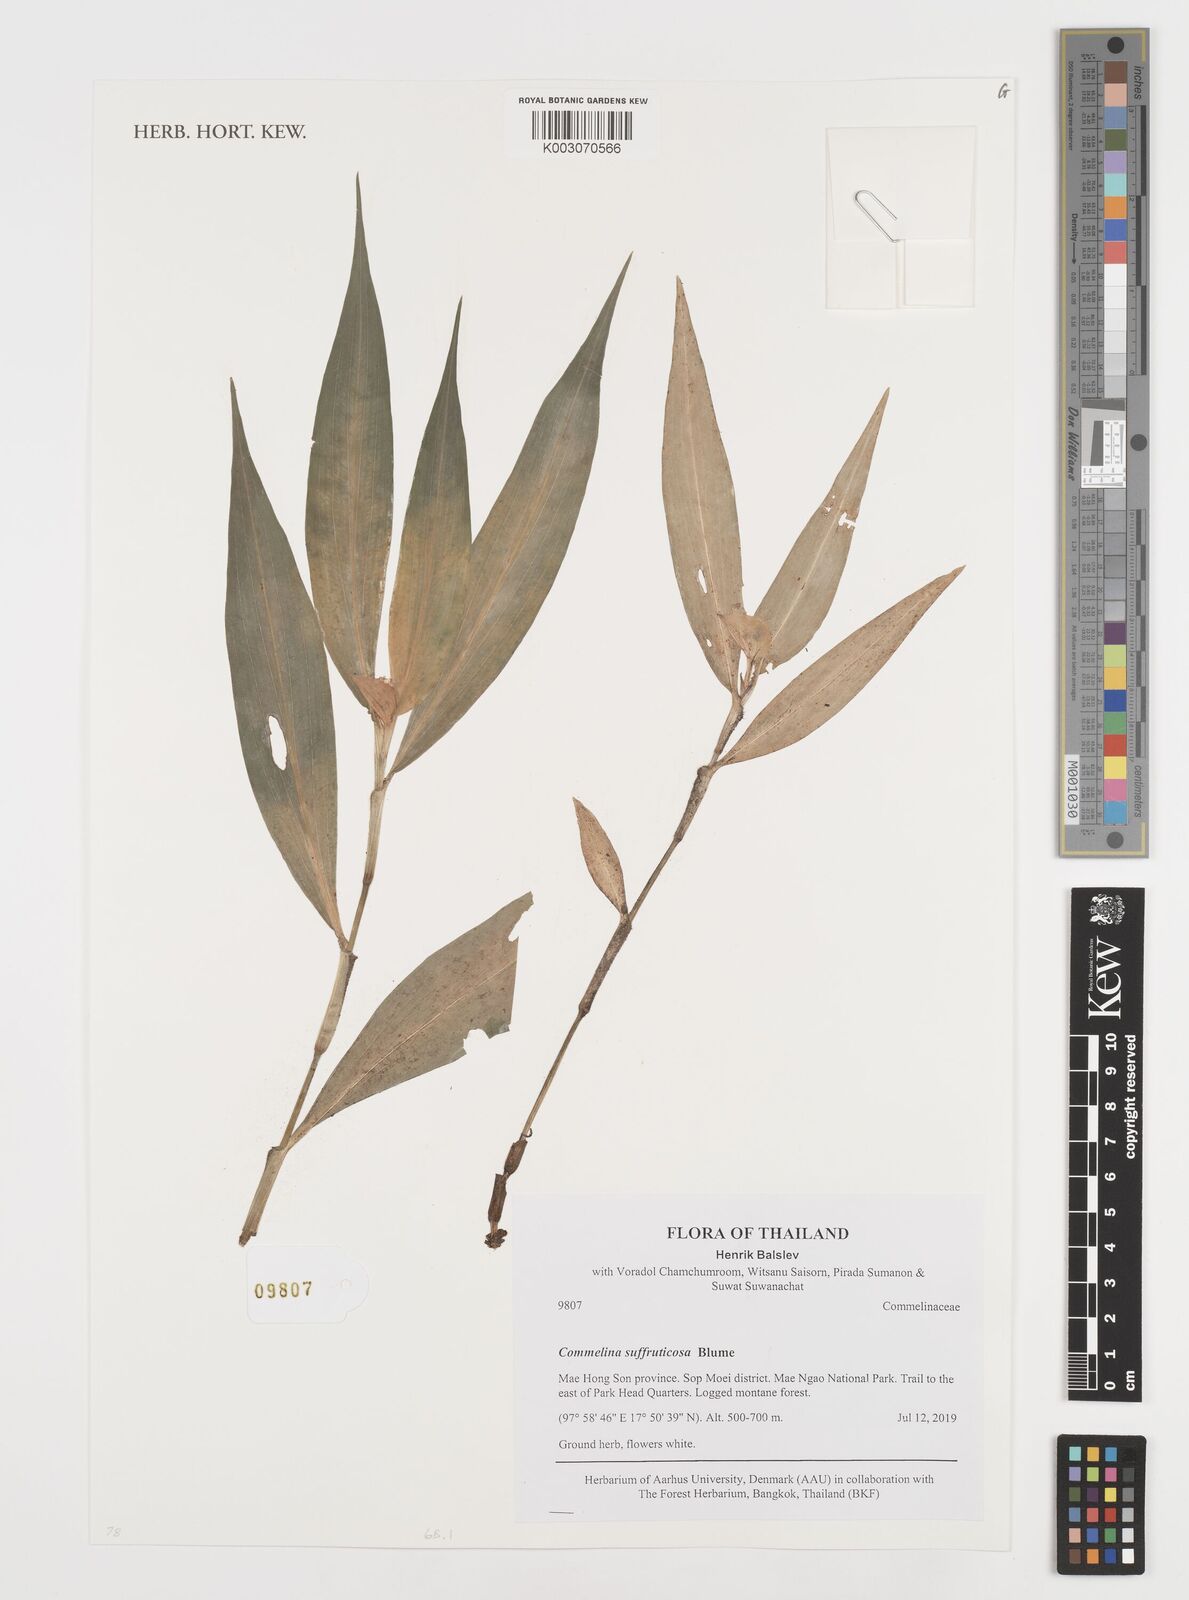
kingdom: Plantae
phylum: Tracheophyta
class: Liliopsida
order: Commelinales
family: Commelinaceae
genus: Commelina
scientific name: Commelina suffruticosa
